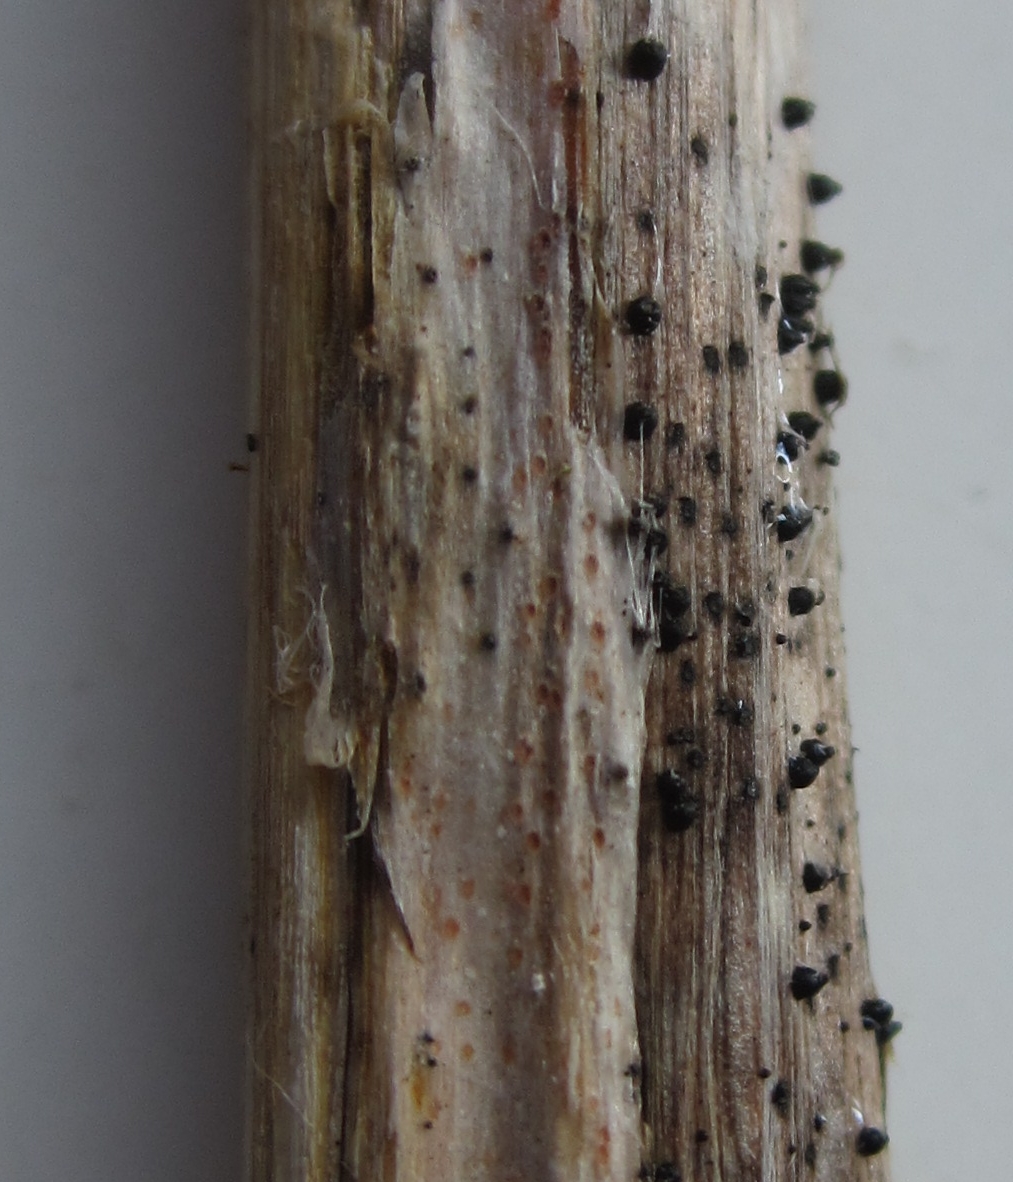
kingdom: Fungi
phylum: Ascomycota
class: Dothideomycetes
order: Pleosporales
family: Leptosphaeriaceae
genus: Leptosphaeria
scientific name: Leptosphaeria acuta
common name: spids kulkegle
